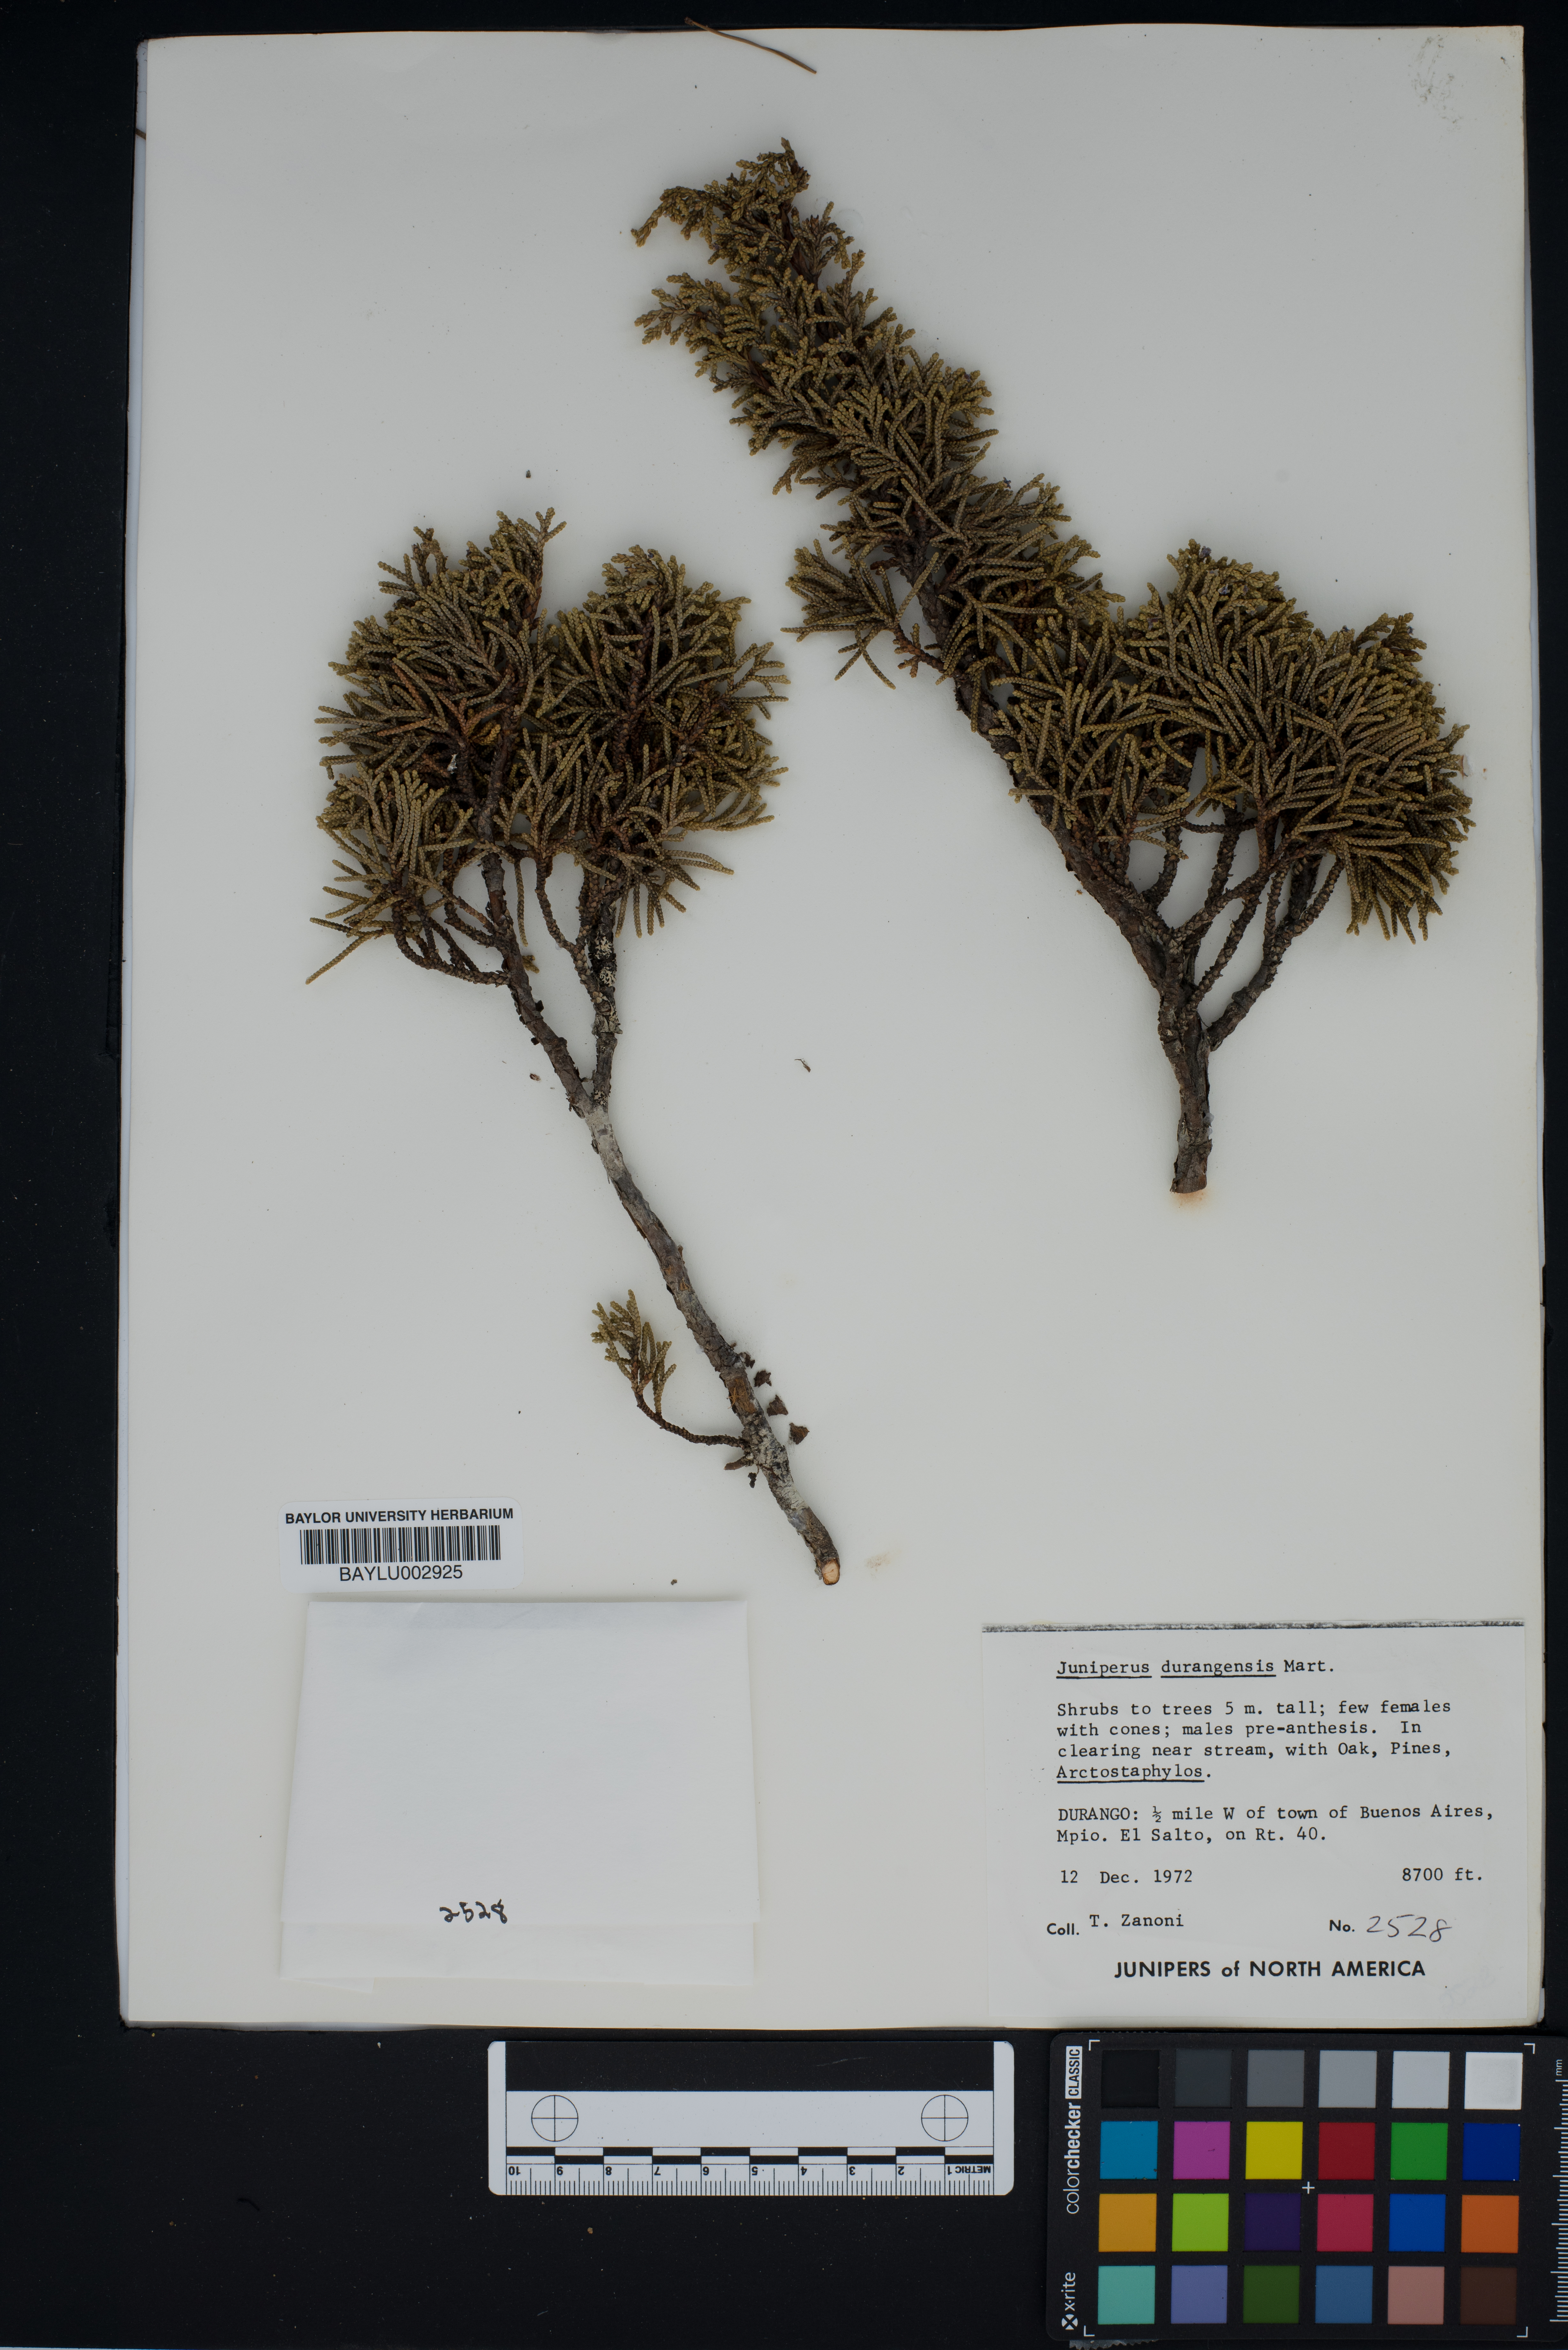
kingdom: Plantae
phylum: Tracheophyta
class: Pinopsida
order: Pinales
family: Cupressaceae
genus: Juniperus
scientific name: Juniperus durangensis
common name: Durango juniper
